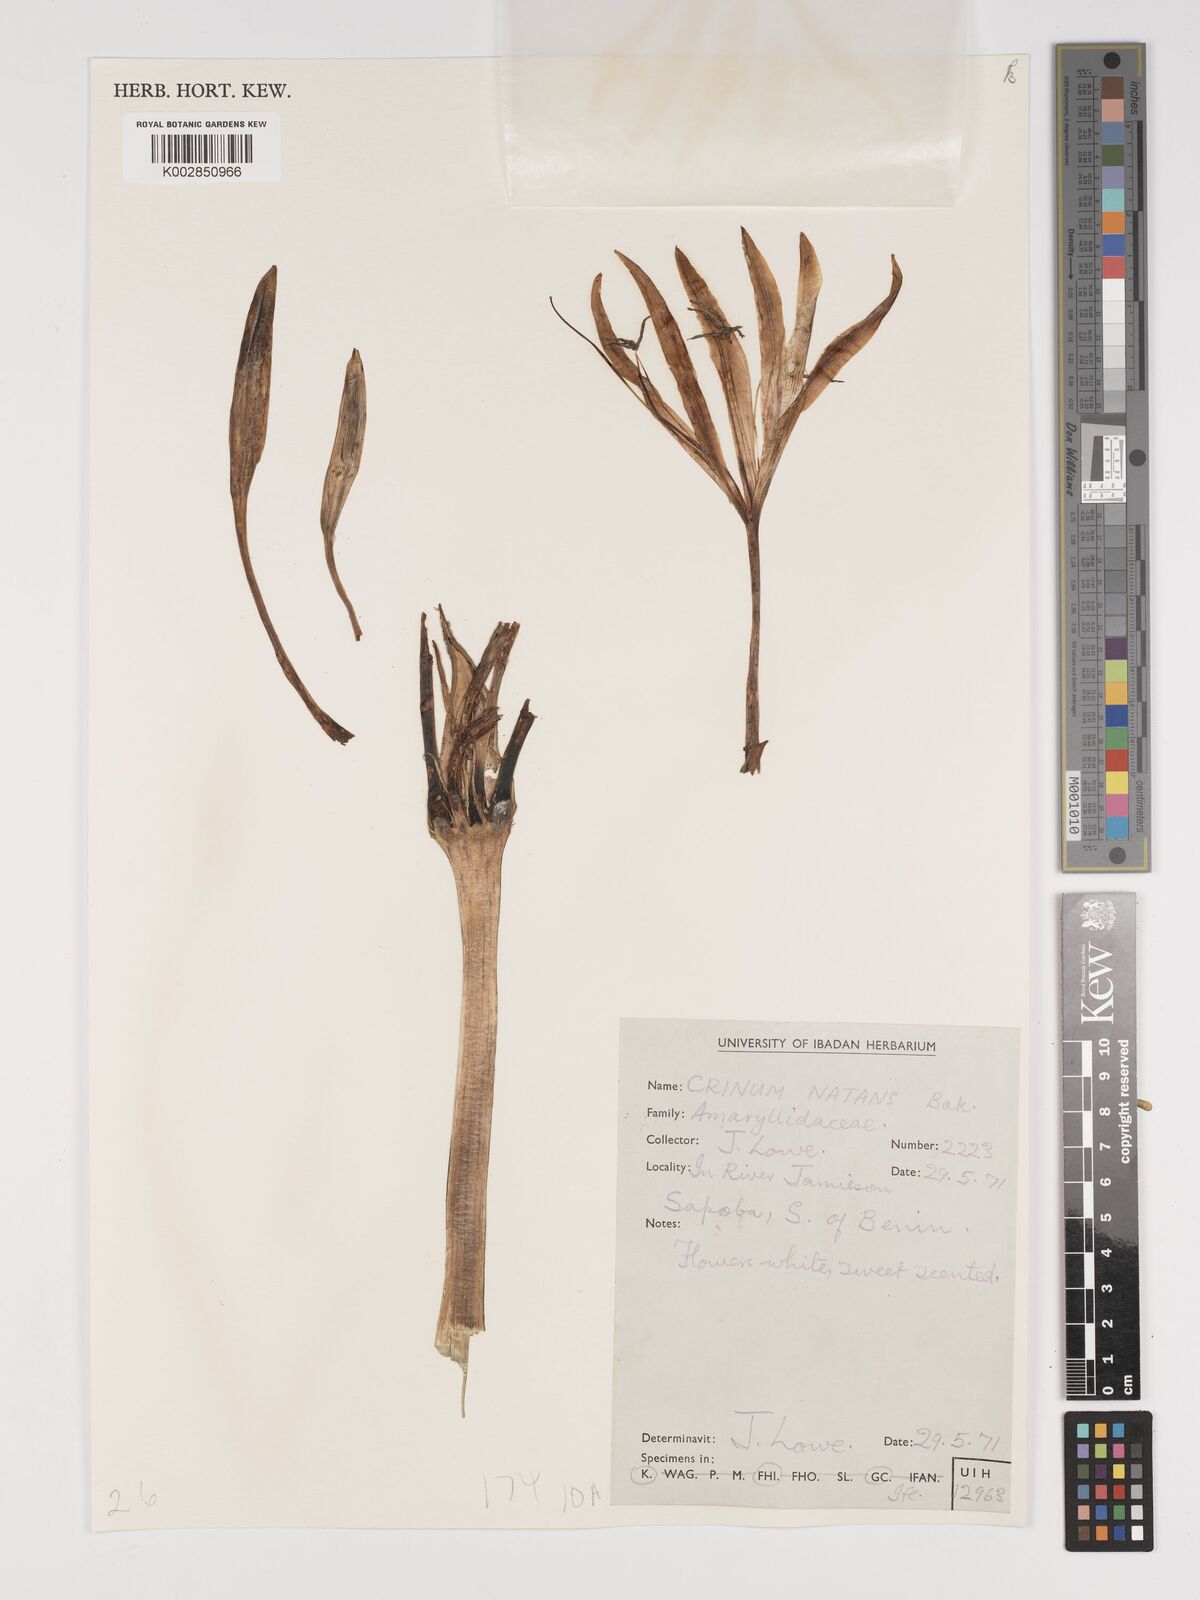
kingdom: Plantae
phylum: Tracheophyta
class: Liliopsida
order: Asparagales
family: Amaryllidaceae
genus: Crinum
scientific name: Crinum natans
